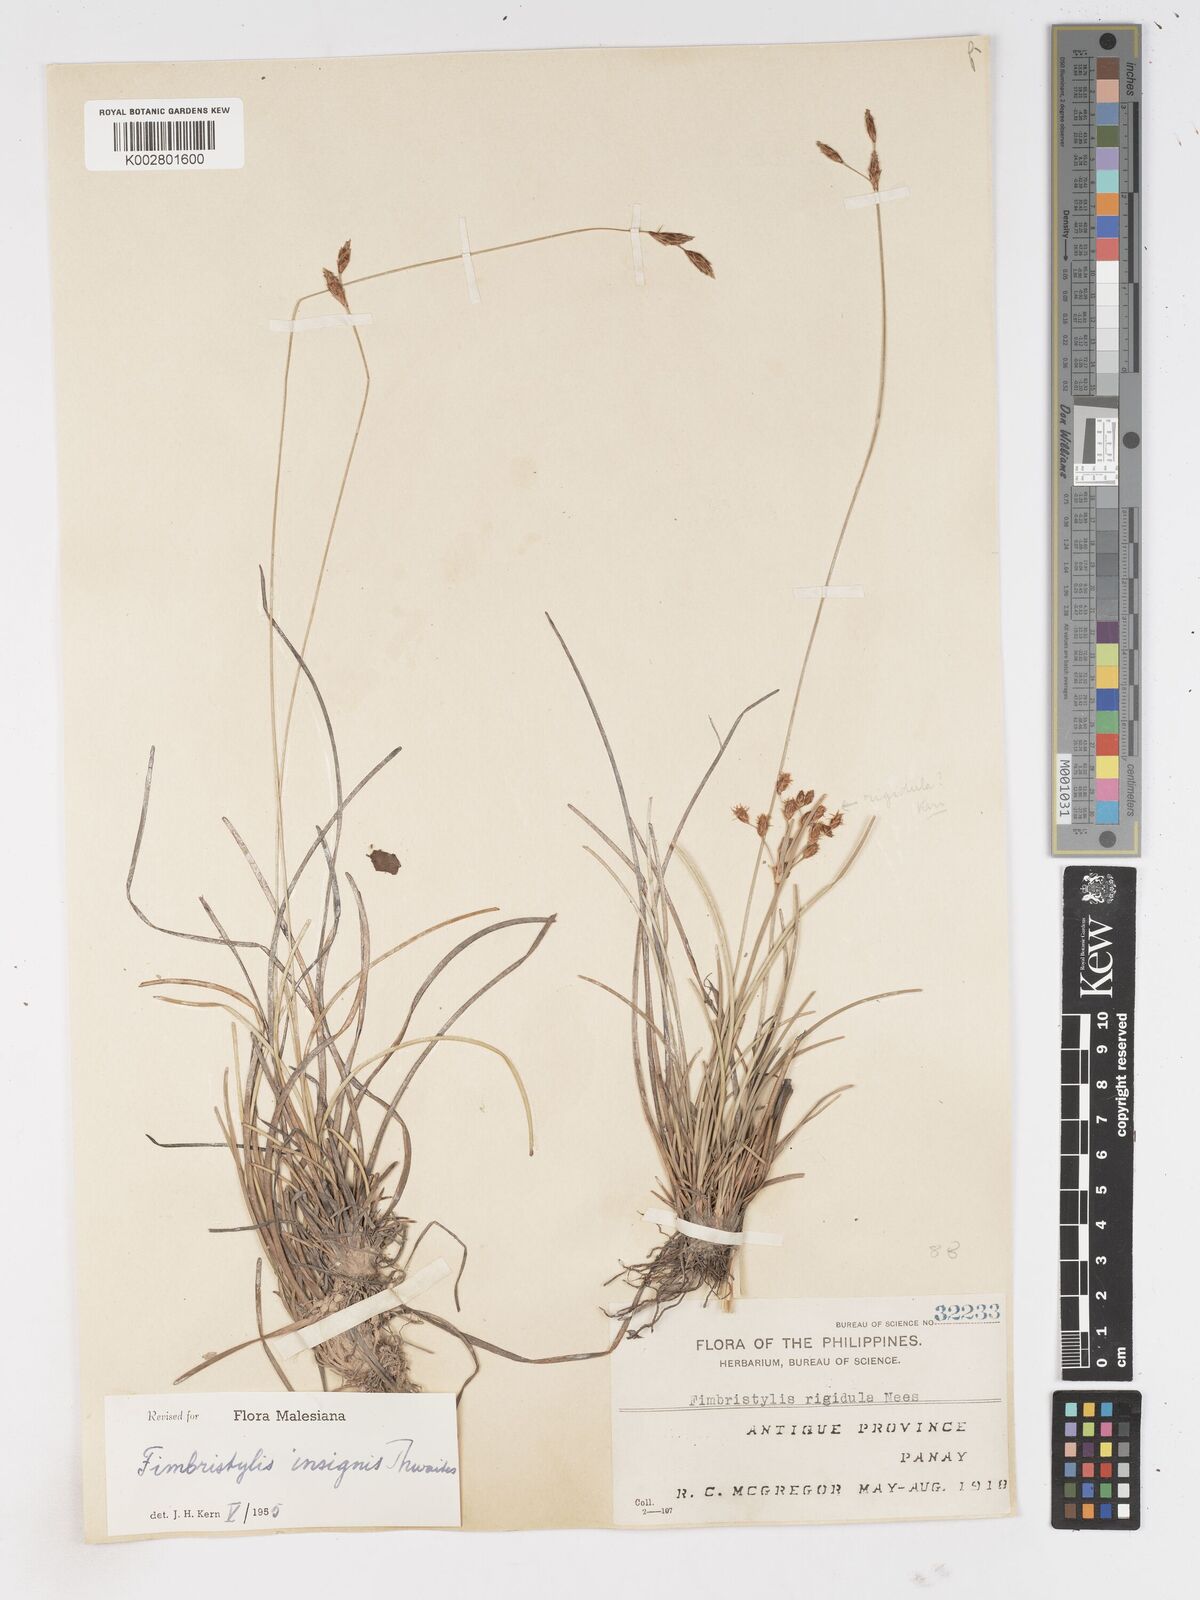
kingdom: Plantae
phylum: Tracheophyta
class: Liliopsida
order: Poales
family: Cyperaceae
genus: Fimbristylis
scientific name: Fimbristylis insignis
